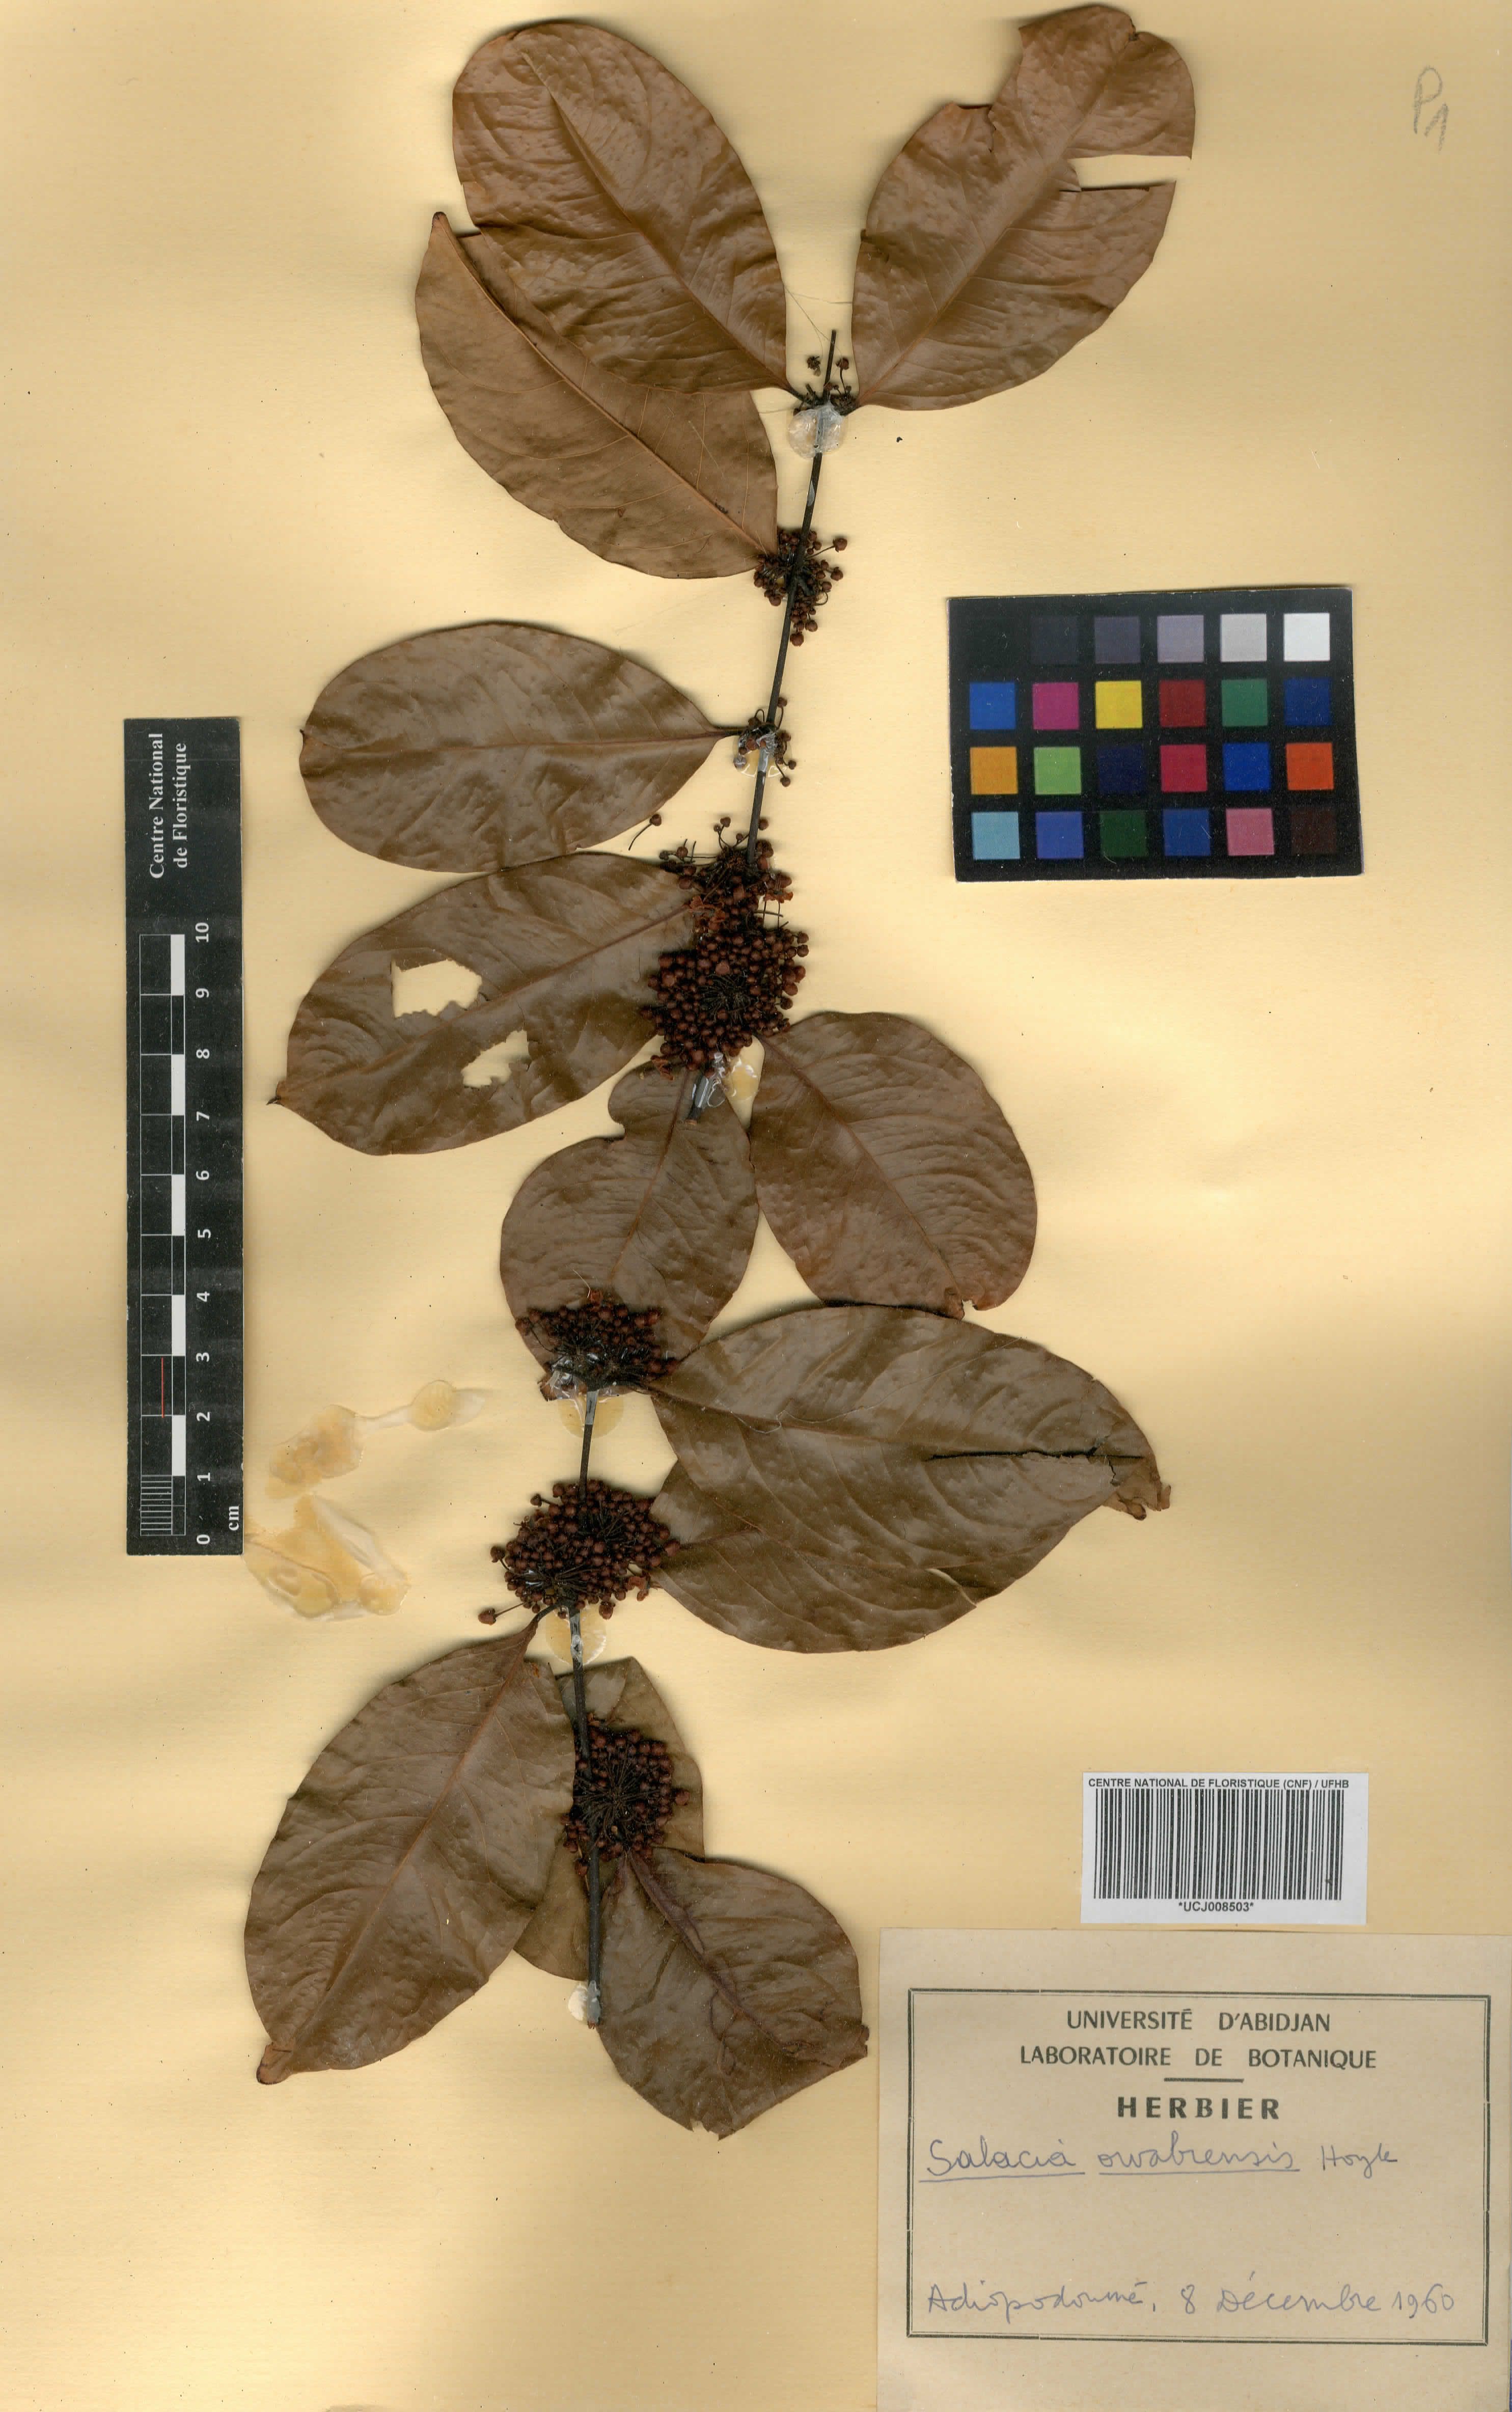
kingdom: Plantae
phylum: Tracheophyta
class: Magnoliopsida
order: Celastrales
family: Celastraceae
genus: Salacia
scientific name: Salacia owabiensis
